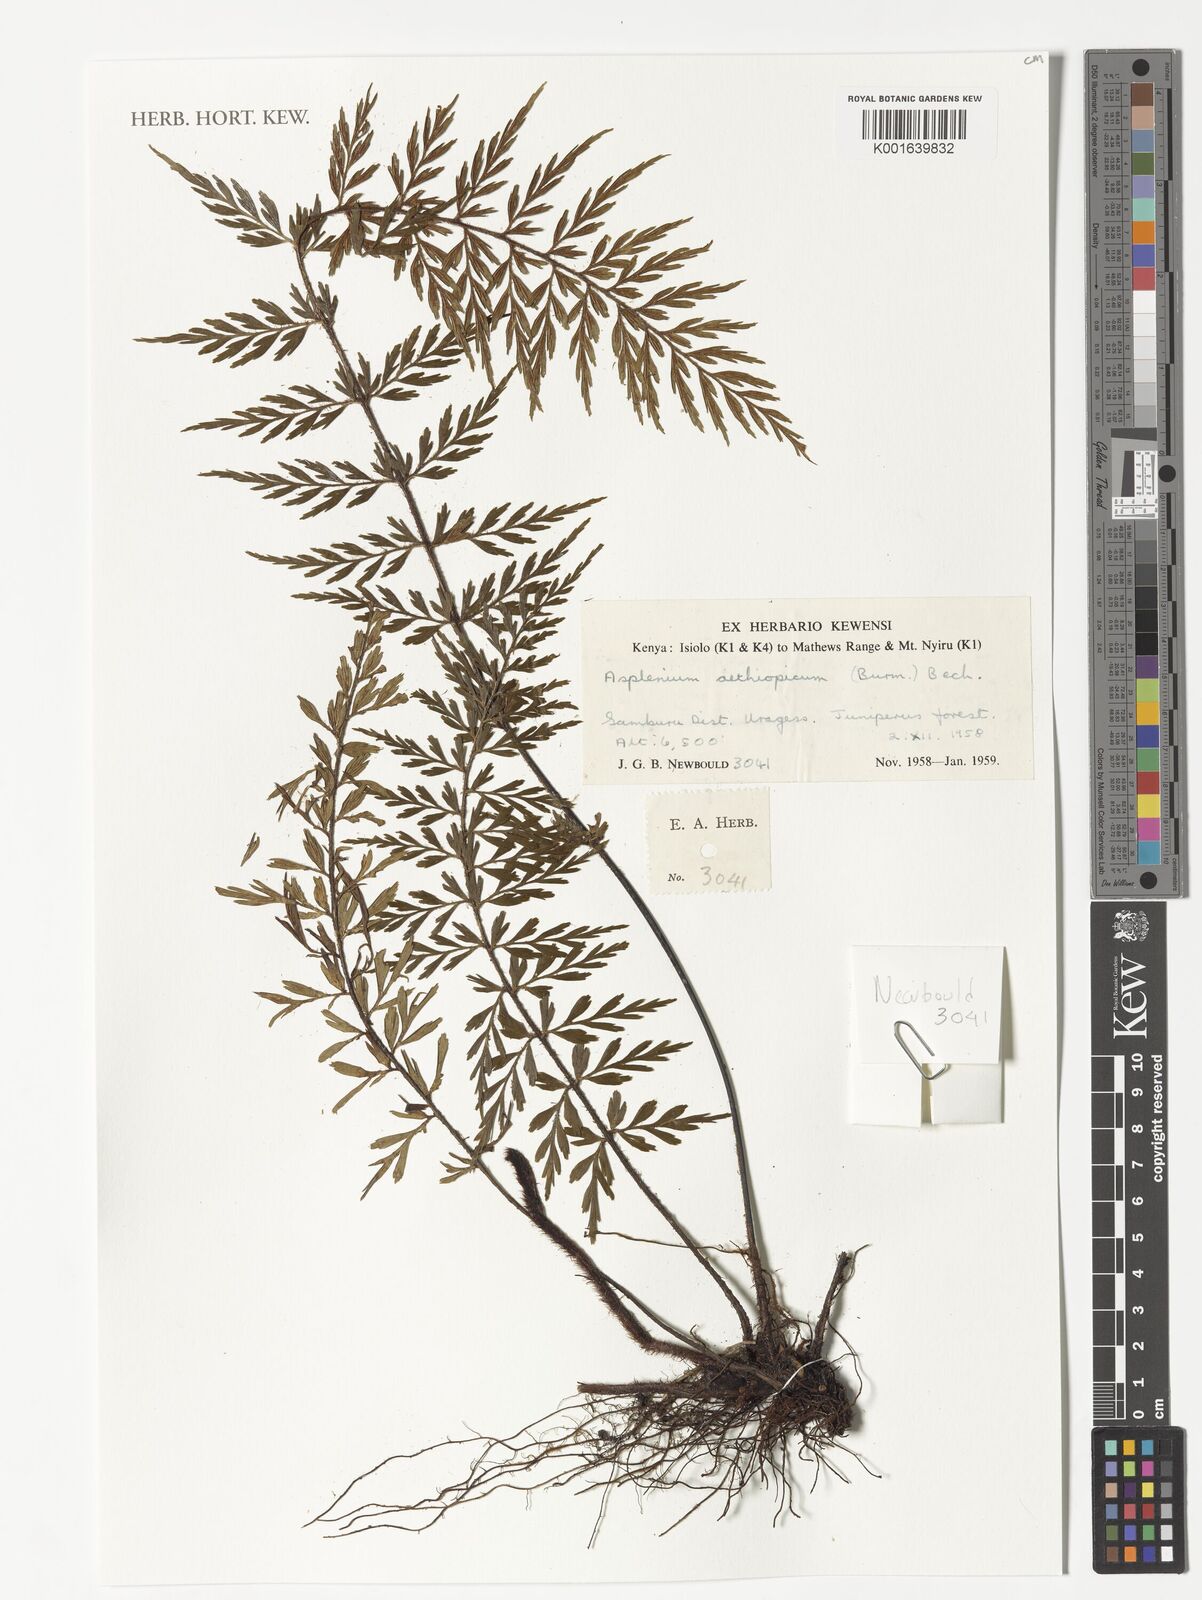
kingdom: Plantae
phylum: Tracheophyta
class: Polypodiopsida
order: Polypodiales
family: Aspleniaceae
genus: Asplenium
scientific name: Asplenium aethiopicum
